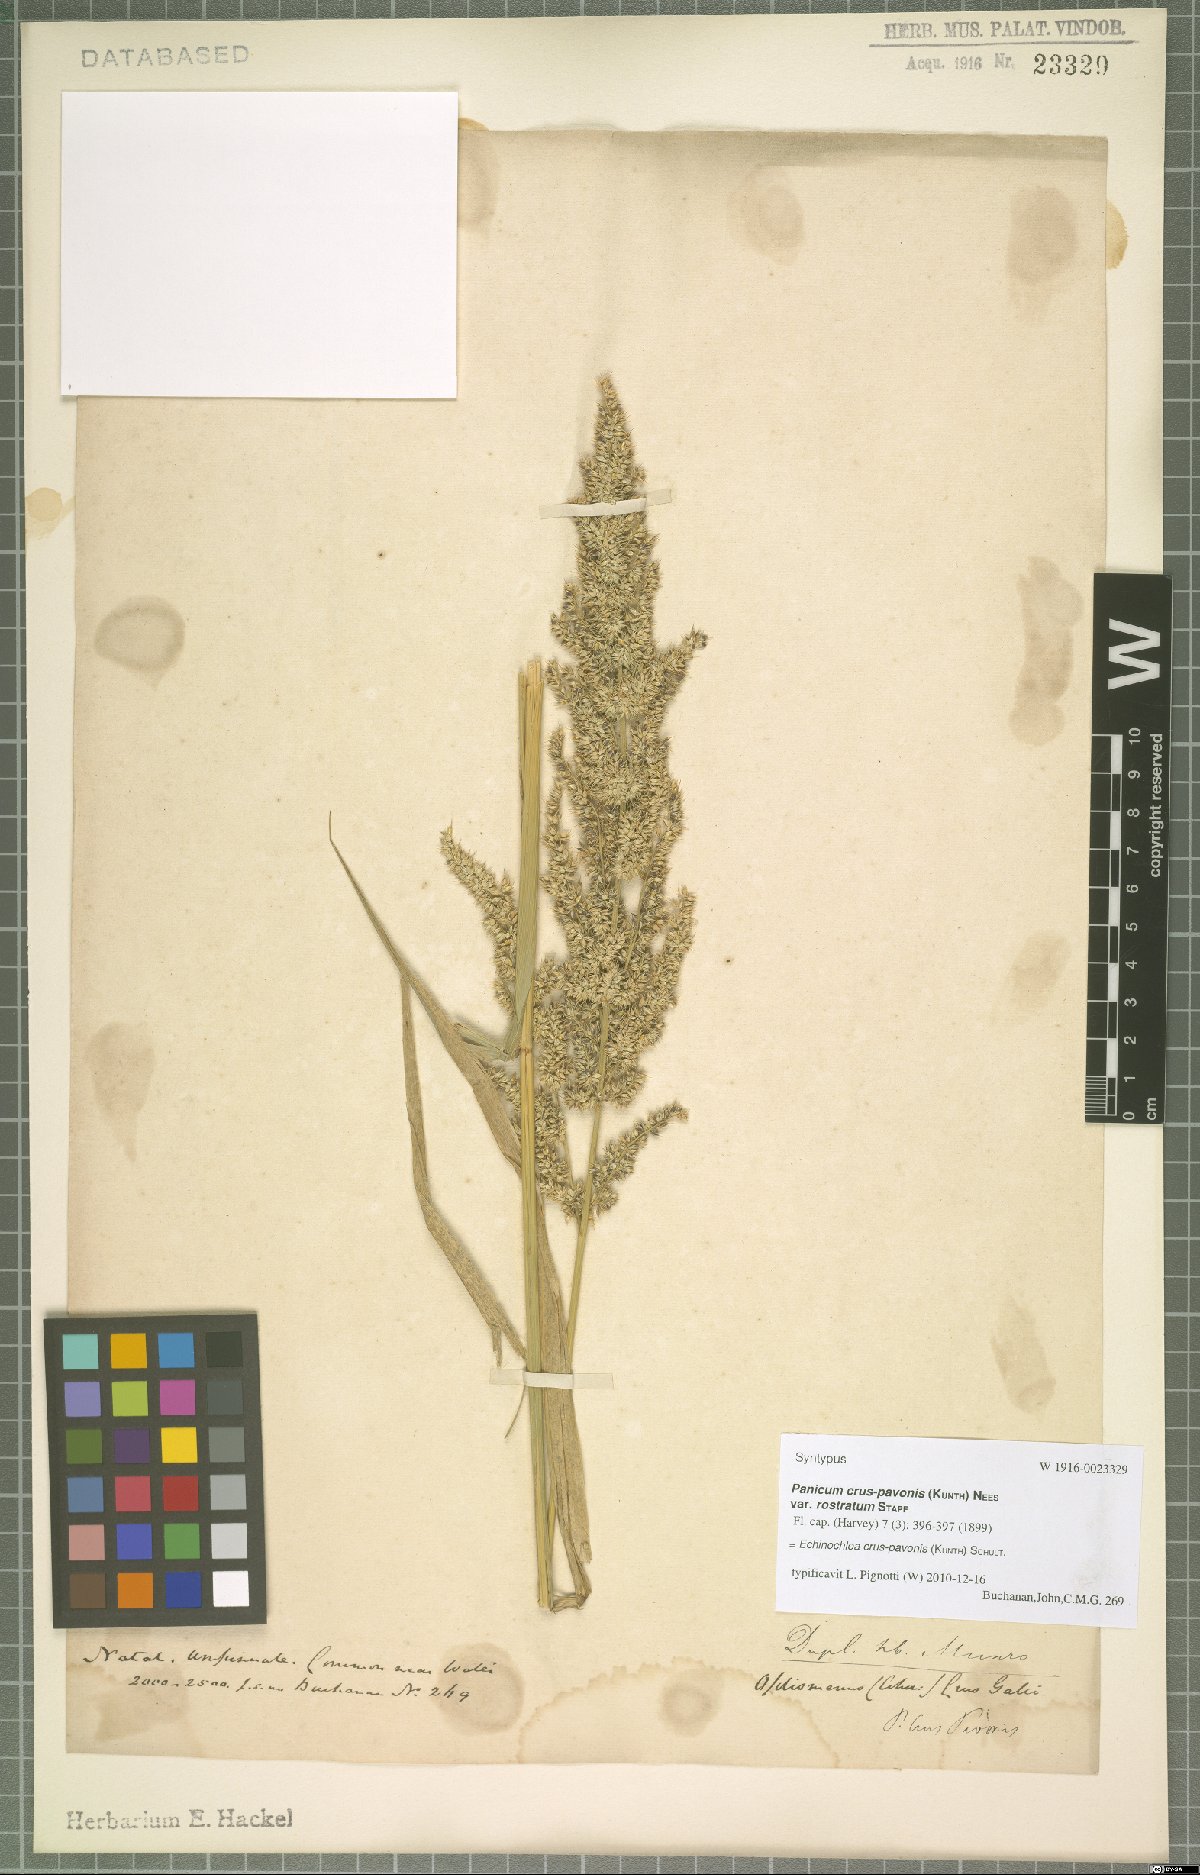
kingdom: Plantae
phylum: Tracheophyta
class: Liliopsida
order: Poales
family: Poaceae
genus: Echinochloa
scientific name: Echinochloa crus-pavonis
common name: Gulf cockspur grass
